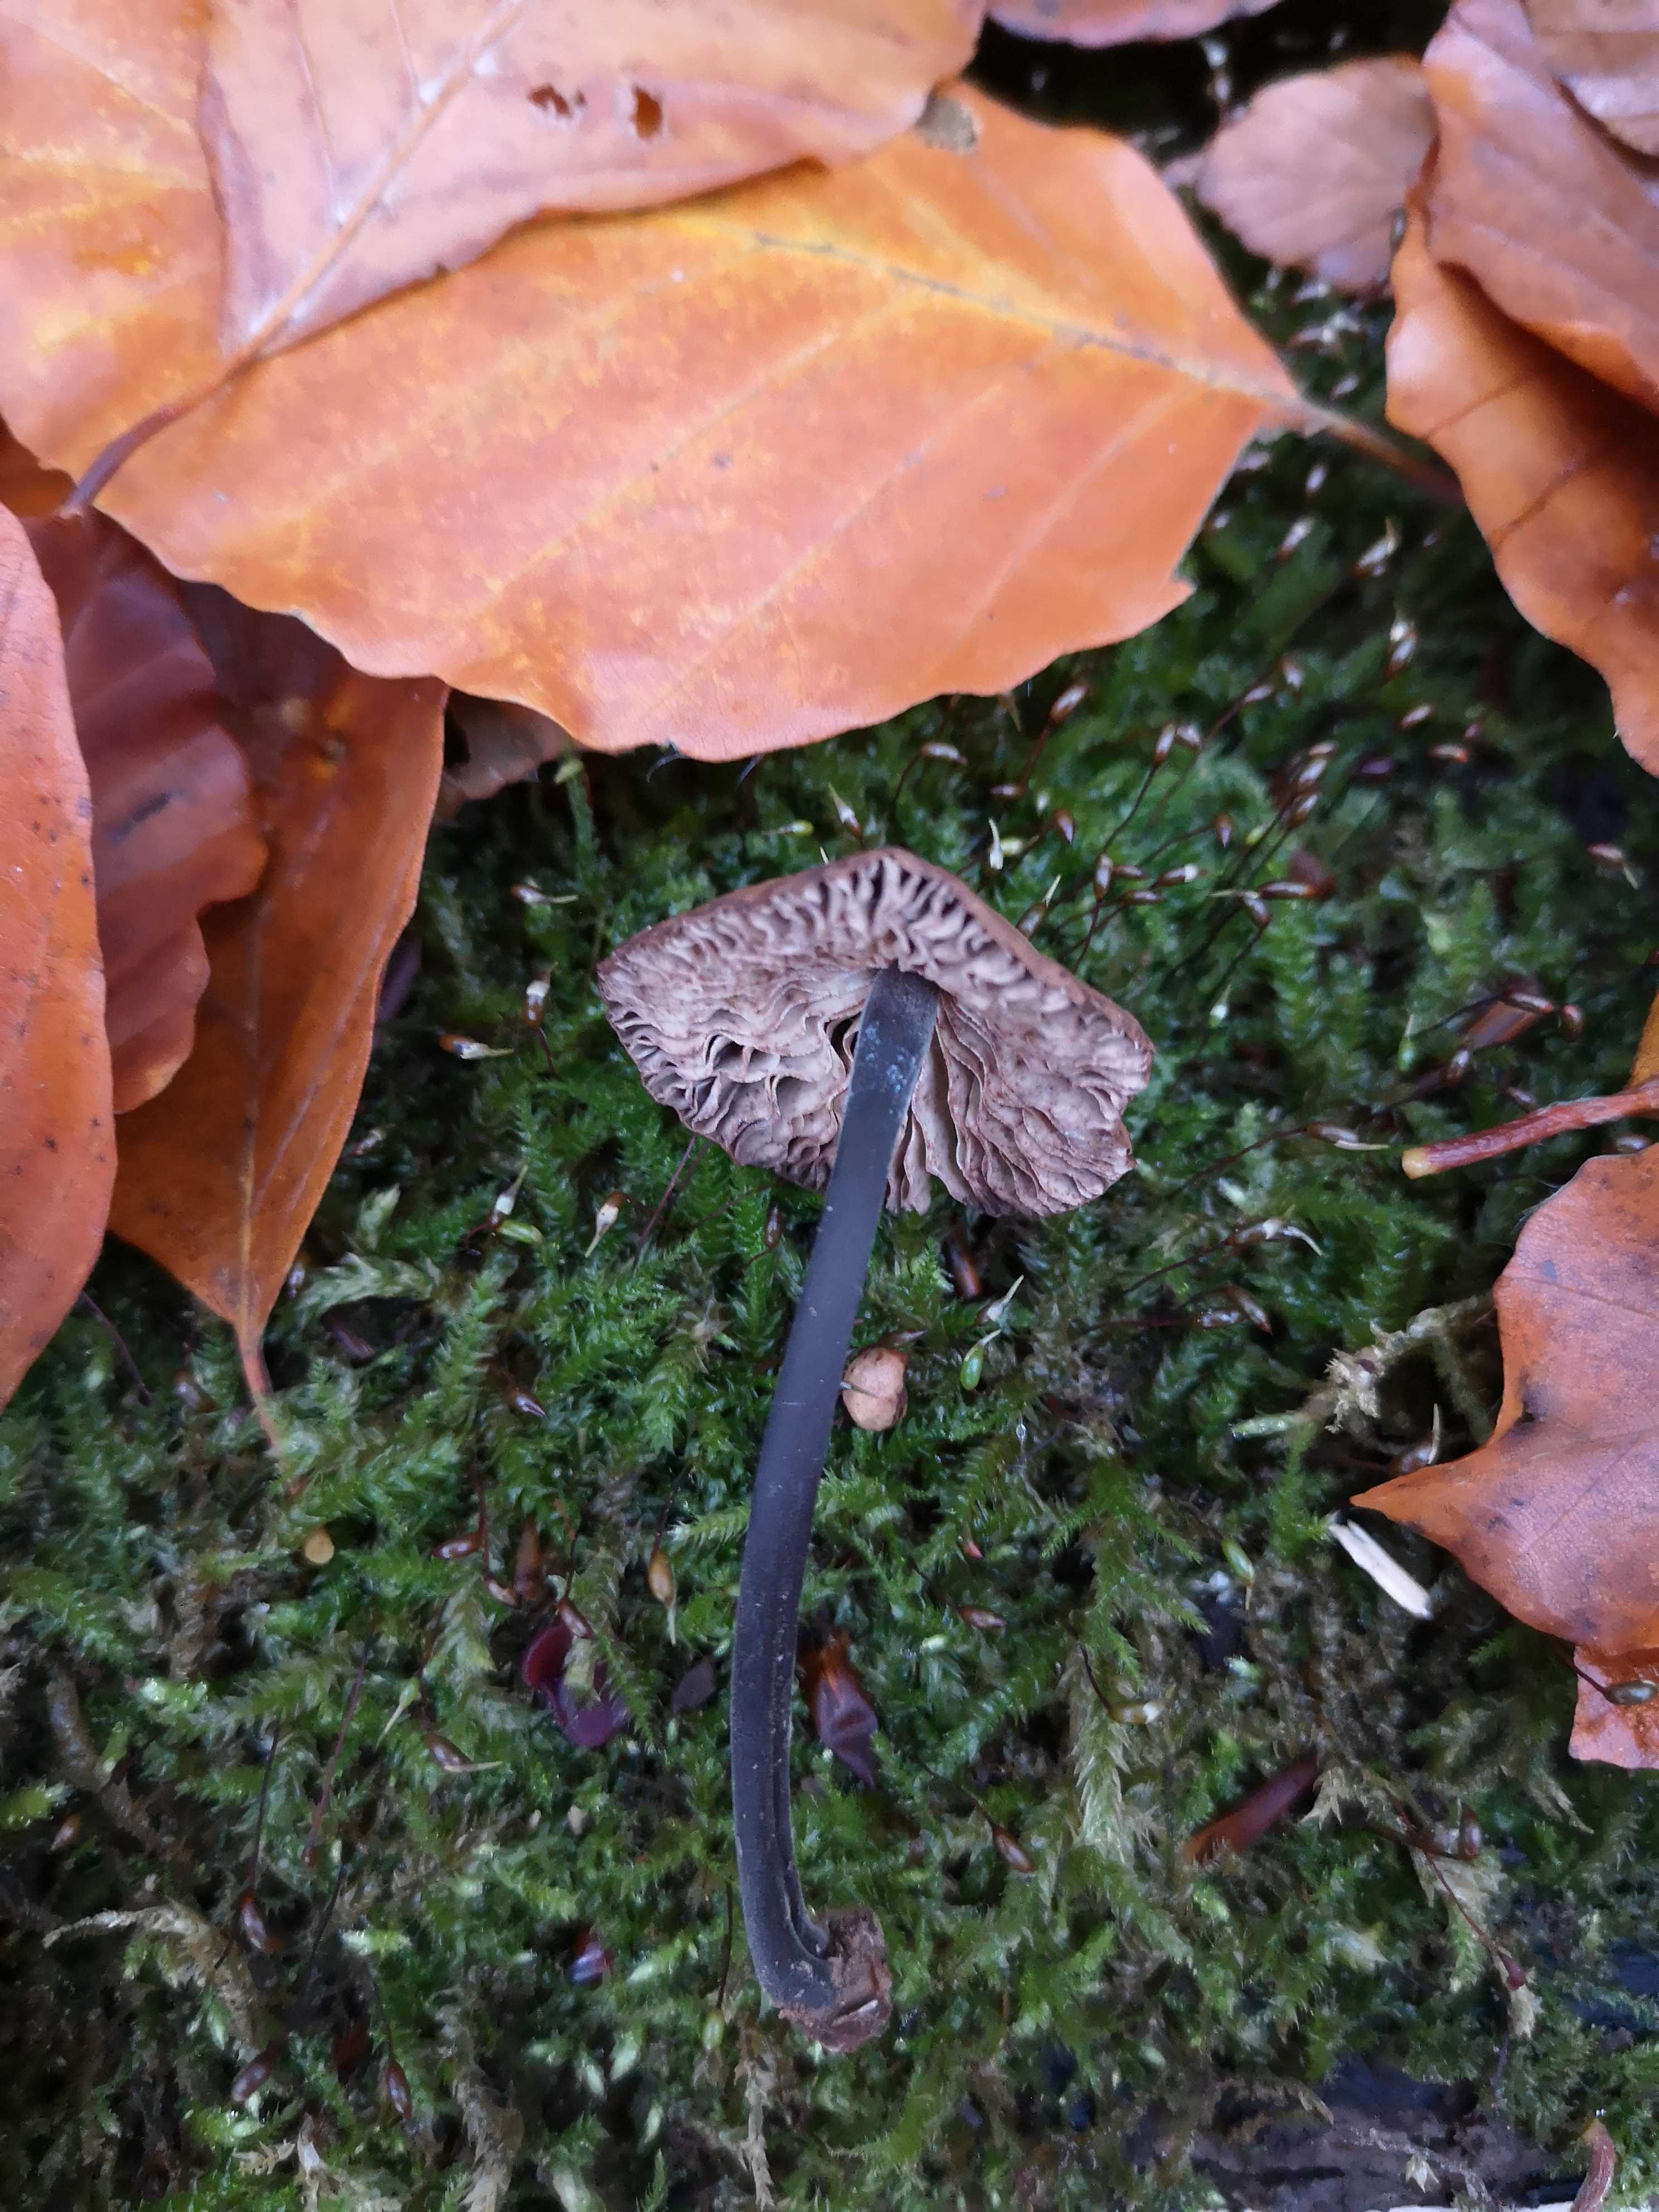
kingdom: Fungi
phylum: Basidiomycota
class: Agaricomycetes
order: Agaricales
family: Omphalotaceae
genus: Mycetinis
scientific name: Mycetinis alliaceus
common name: stor løghat
